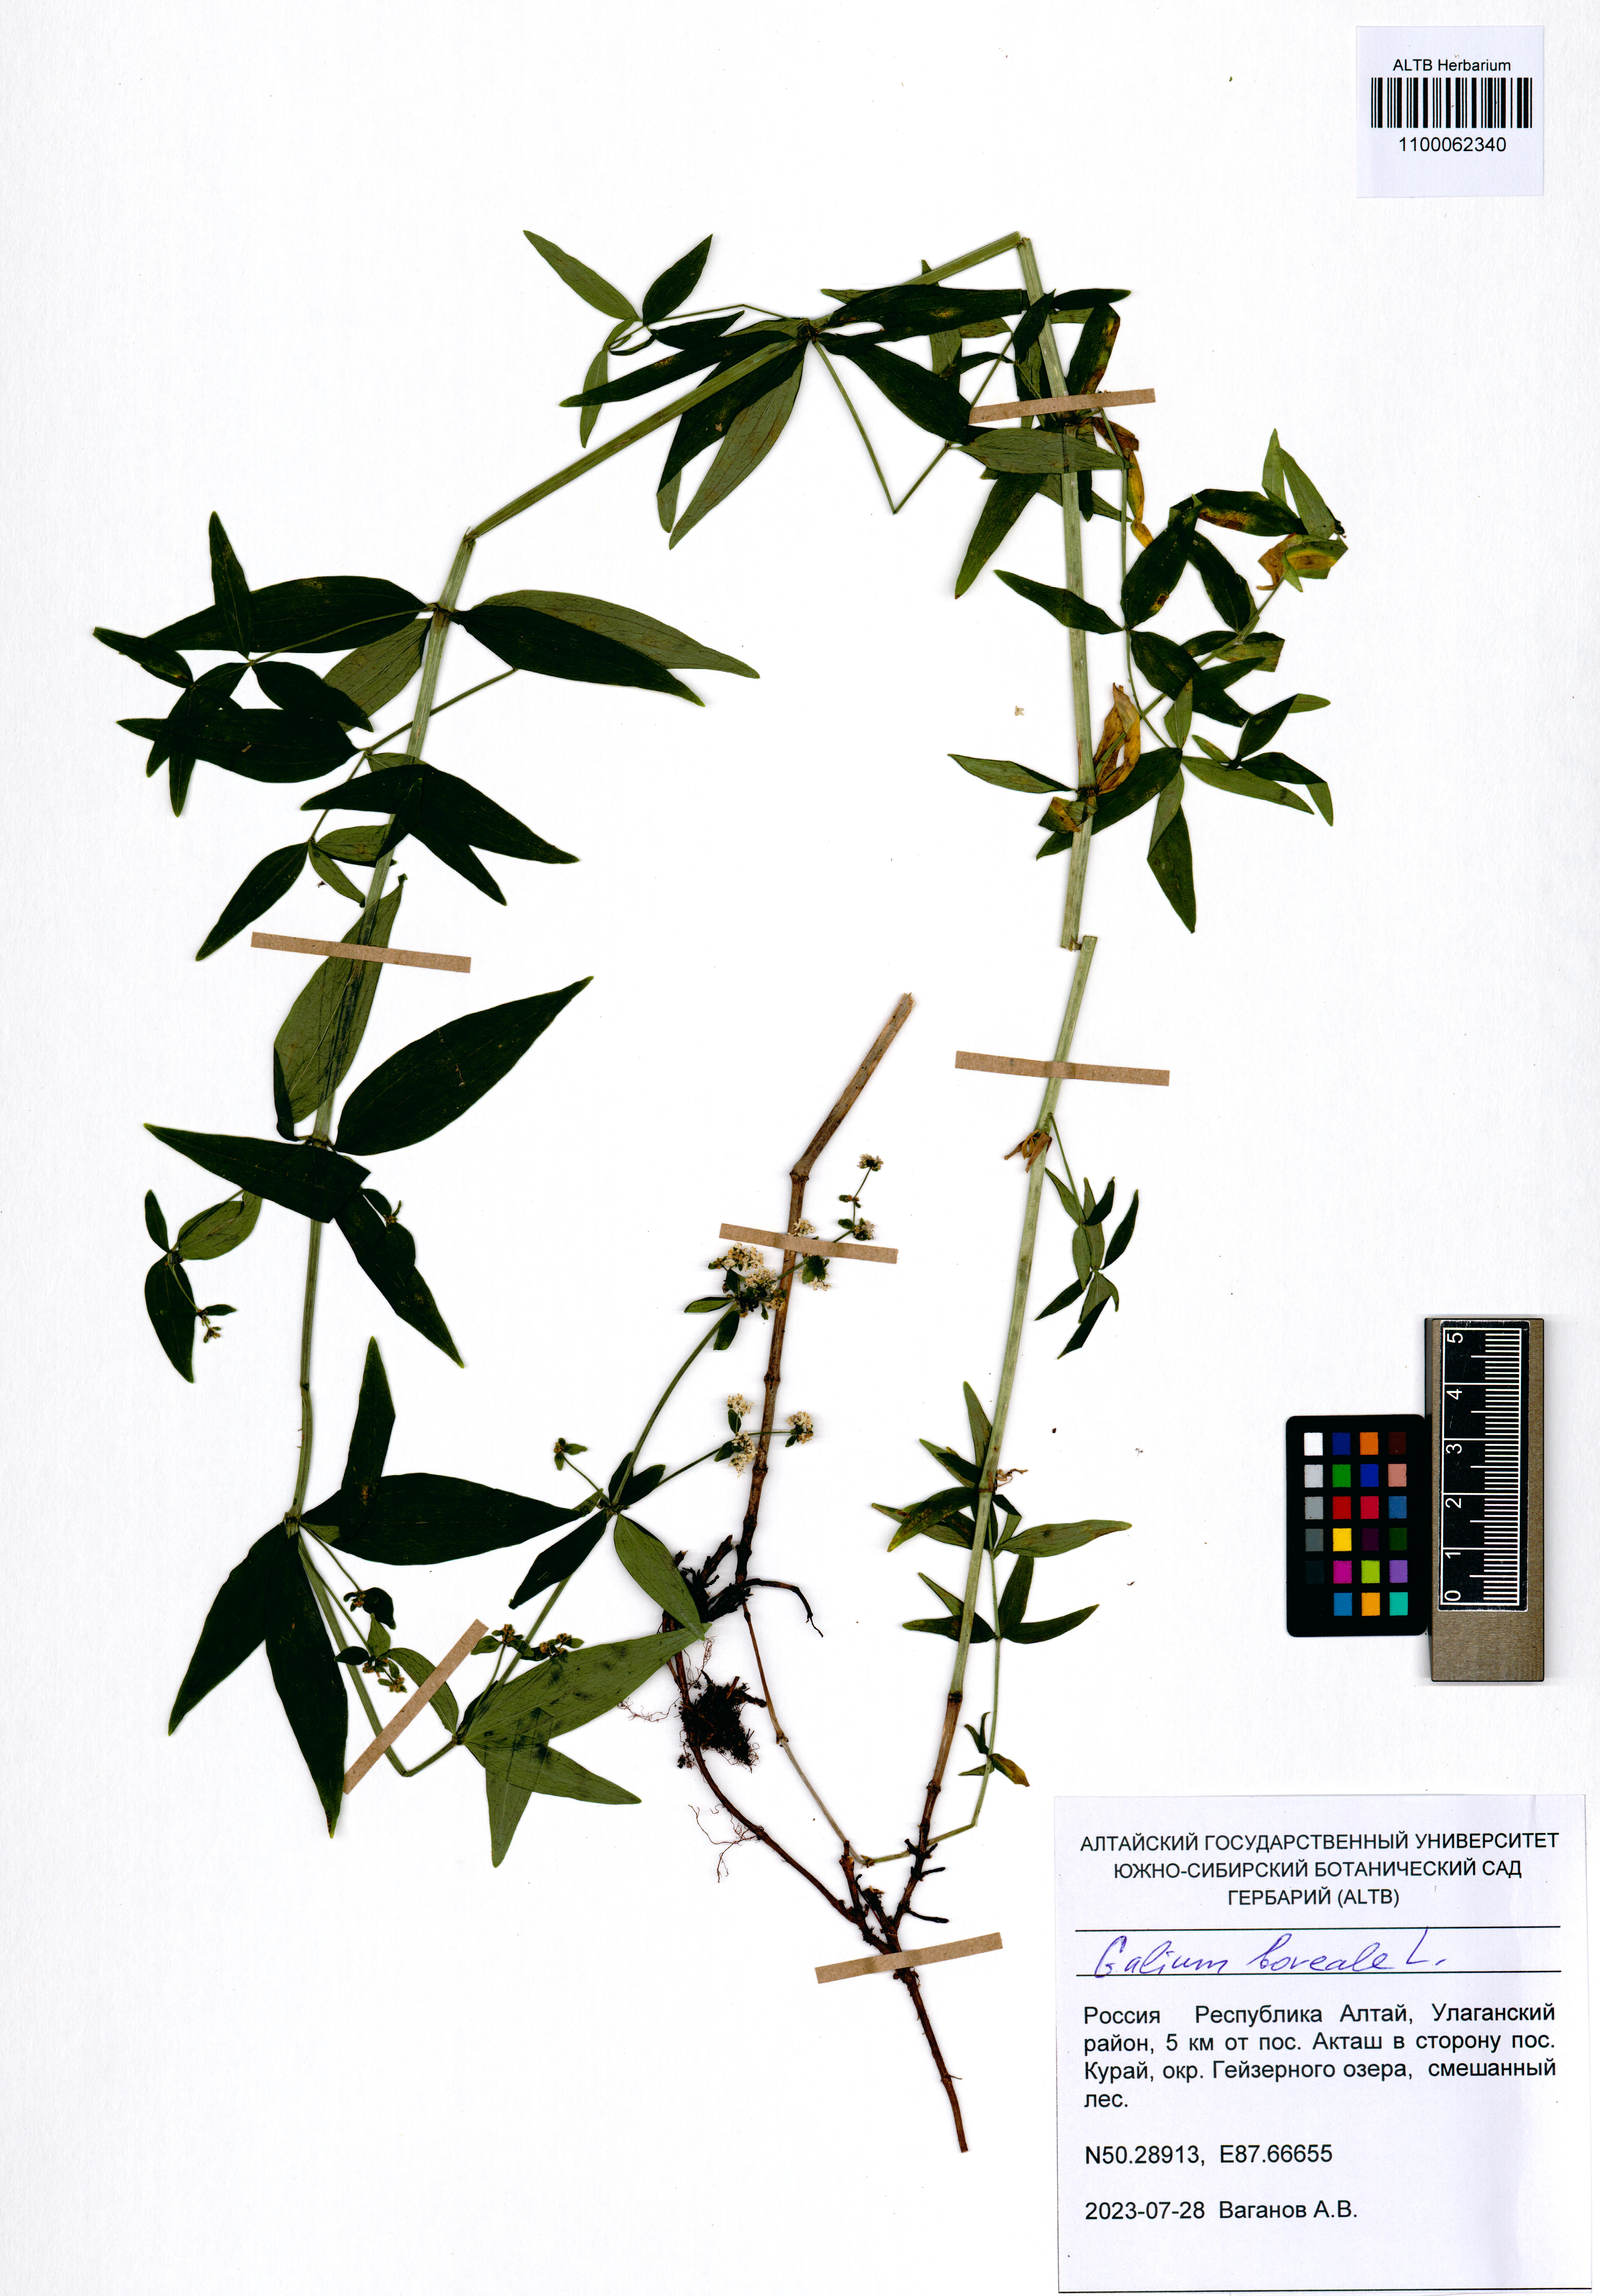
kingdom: Plantae
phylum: Tracheophyta
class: Magnoliopsida
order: Gentianales
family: Rubiaceae
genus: Galium
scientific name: Galium boreale
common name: Northern bedstraw
